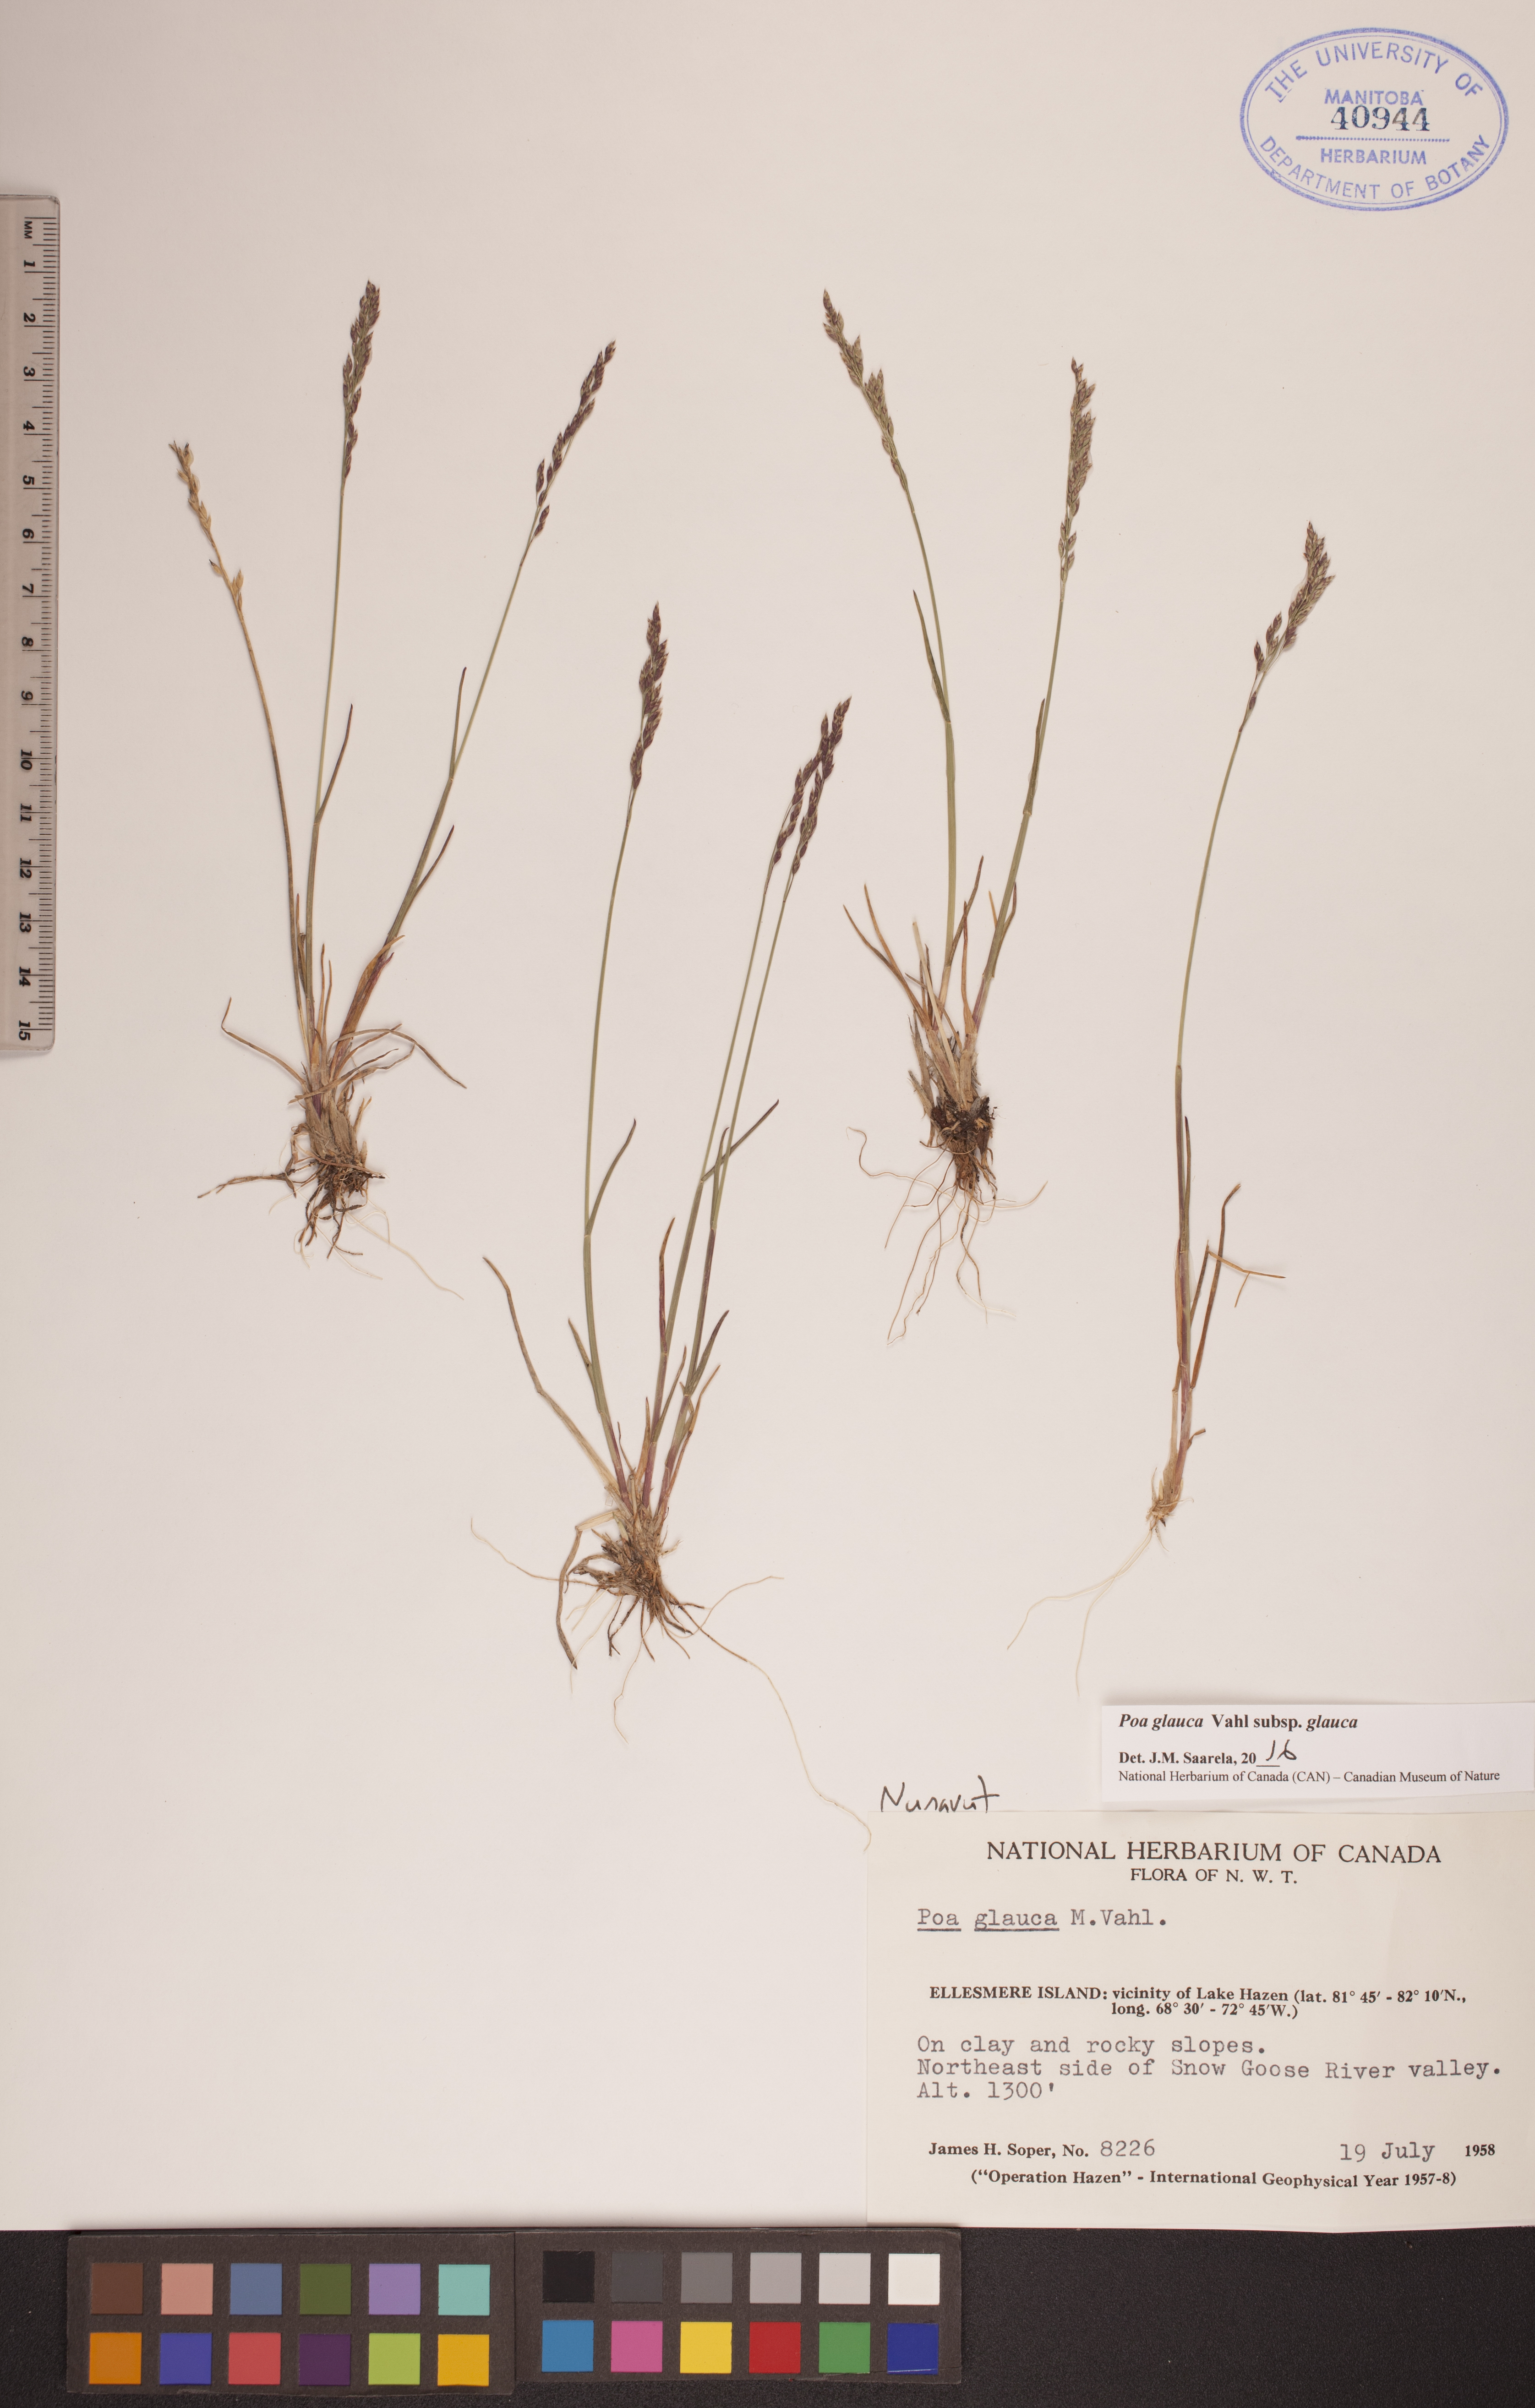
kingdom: Plantae
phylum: Tracheophyta
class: Liliopsida
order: Poales
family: Poaceae
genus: Poa
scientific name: Poa glauca
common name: Glaucous bluegrass
